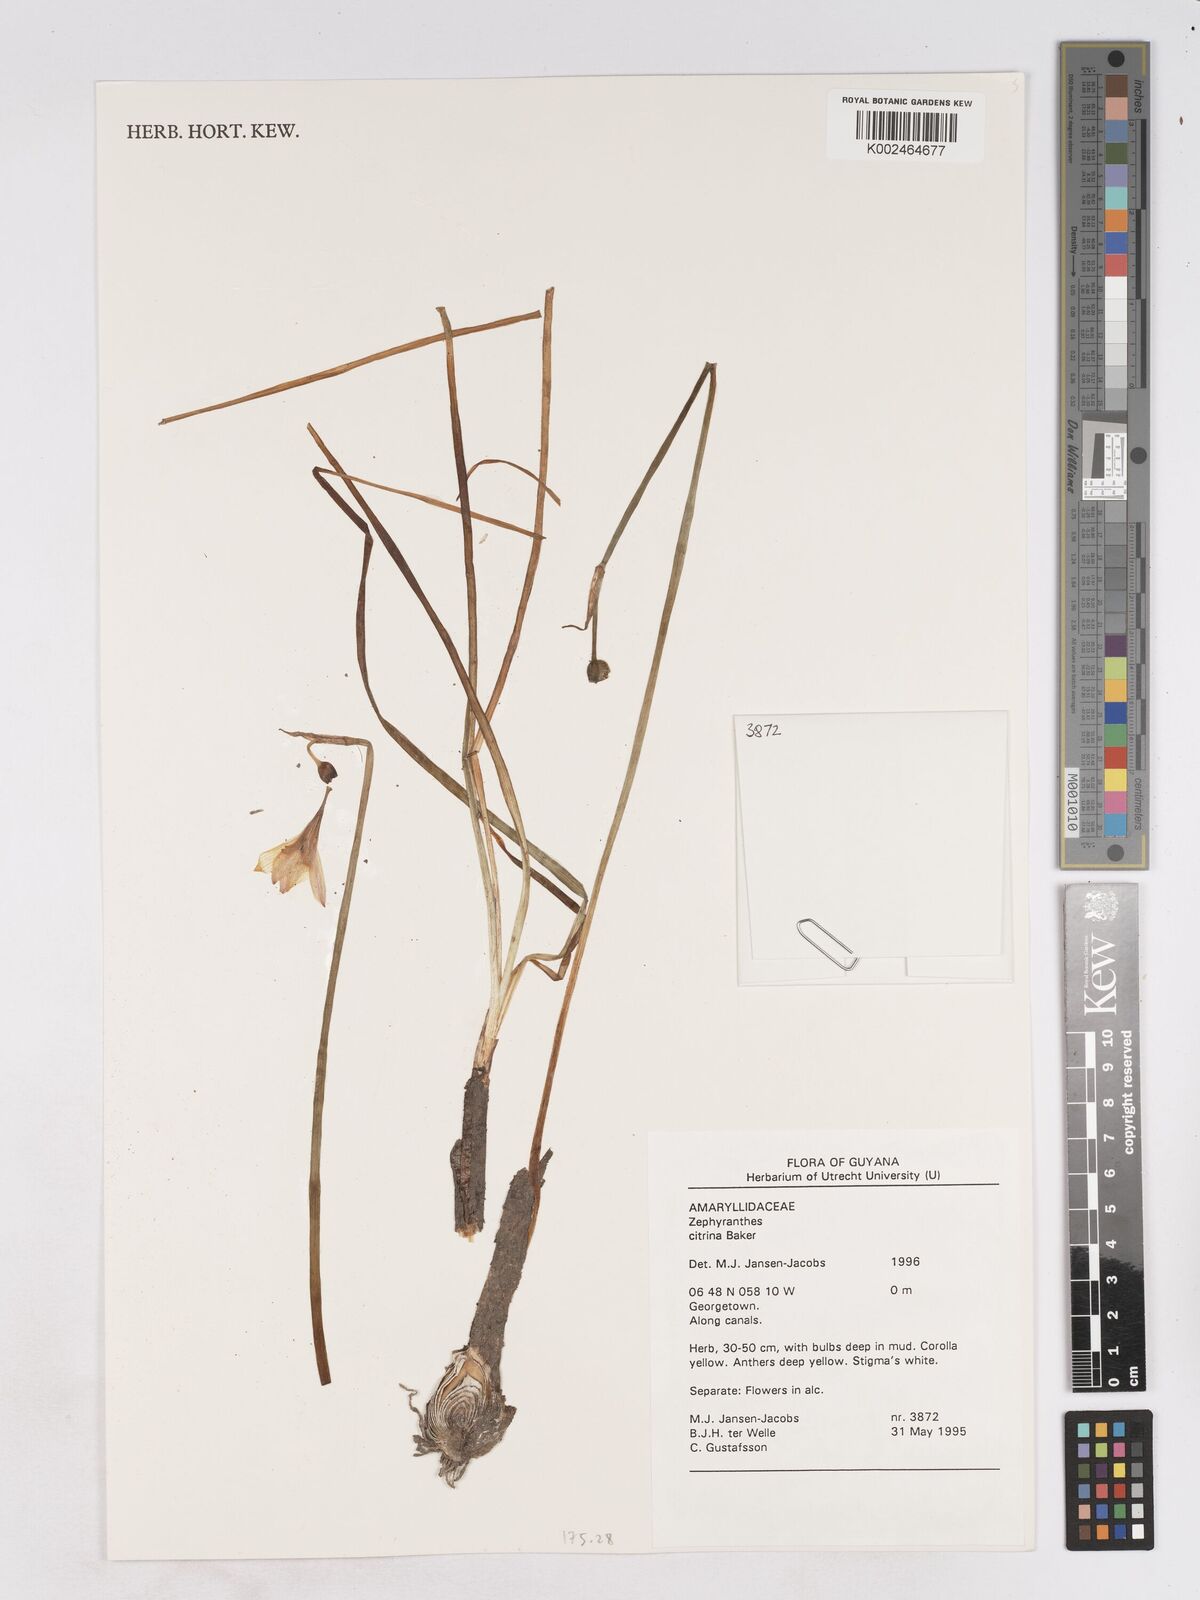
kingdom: Plantae
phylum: Tracheophyta
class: Liliopsida
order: Asparagales
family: Amaryllidaceae
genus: Zephyranthes
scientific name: Zephyranthes citrina
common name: Citron zephyrlily
